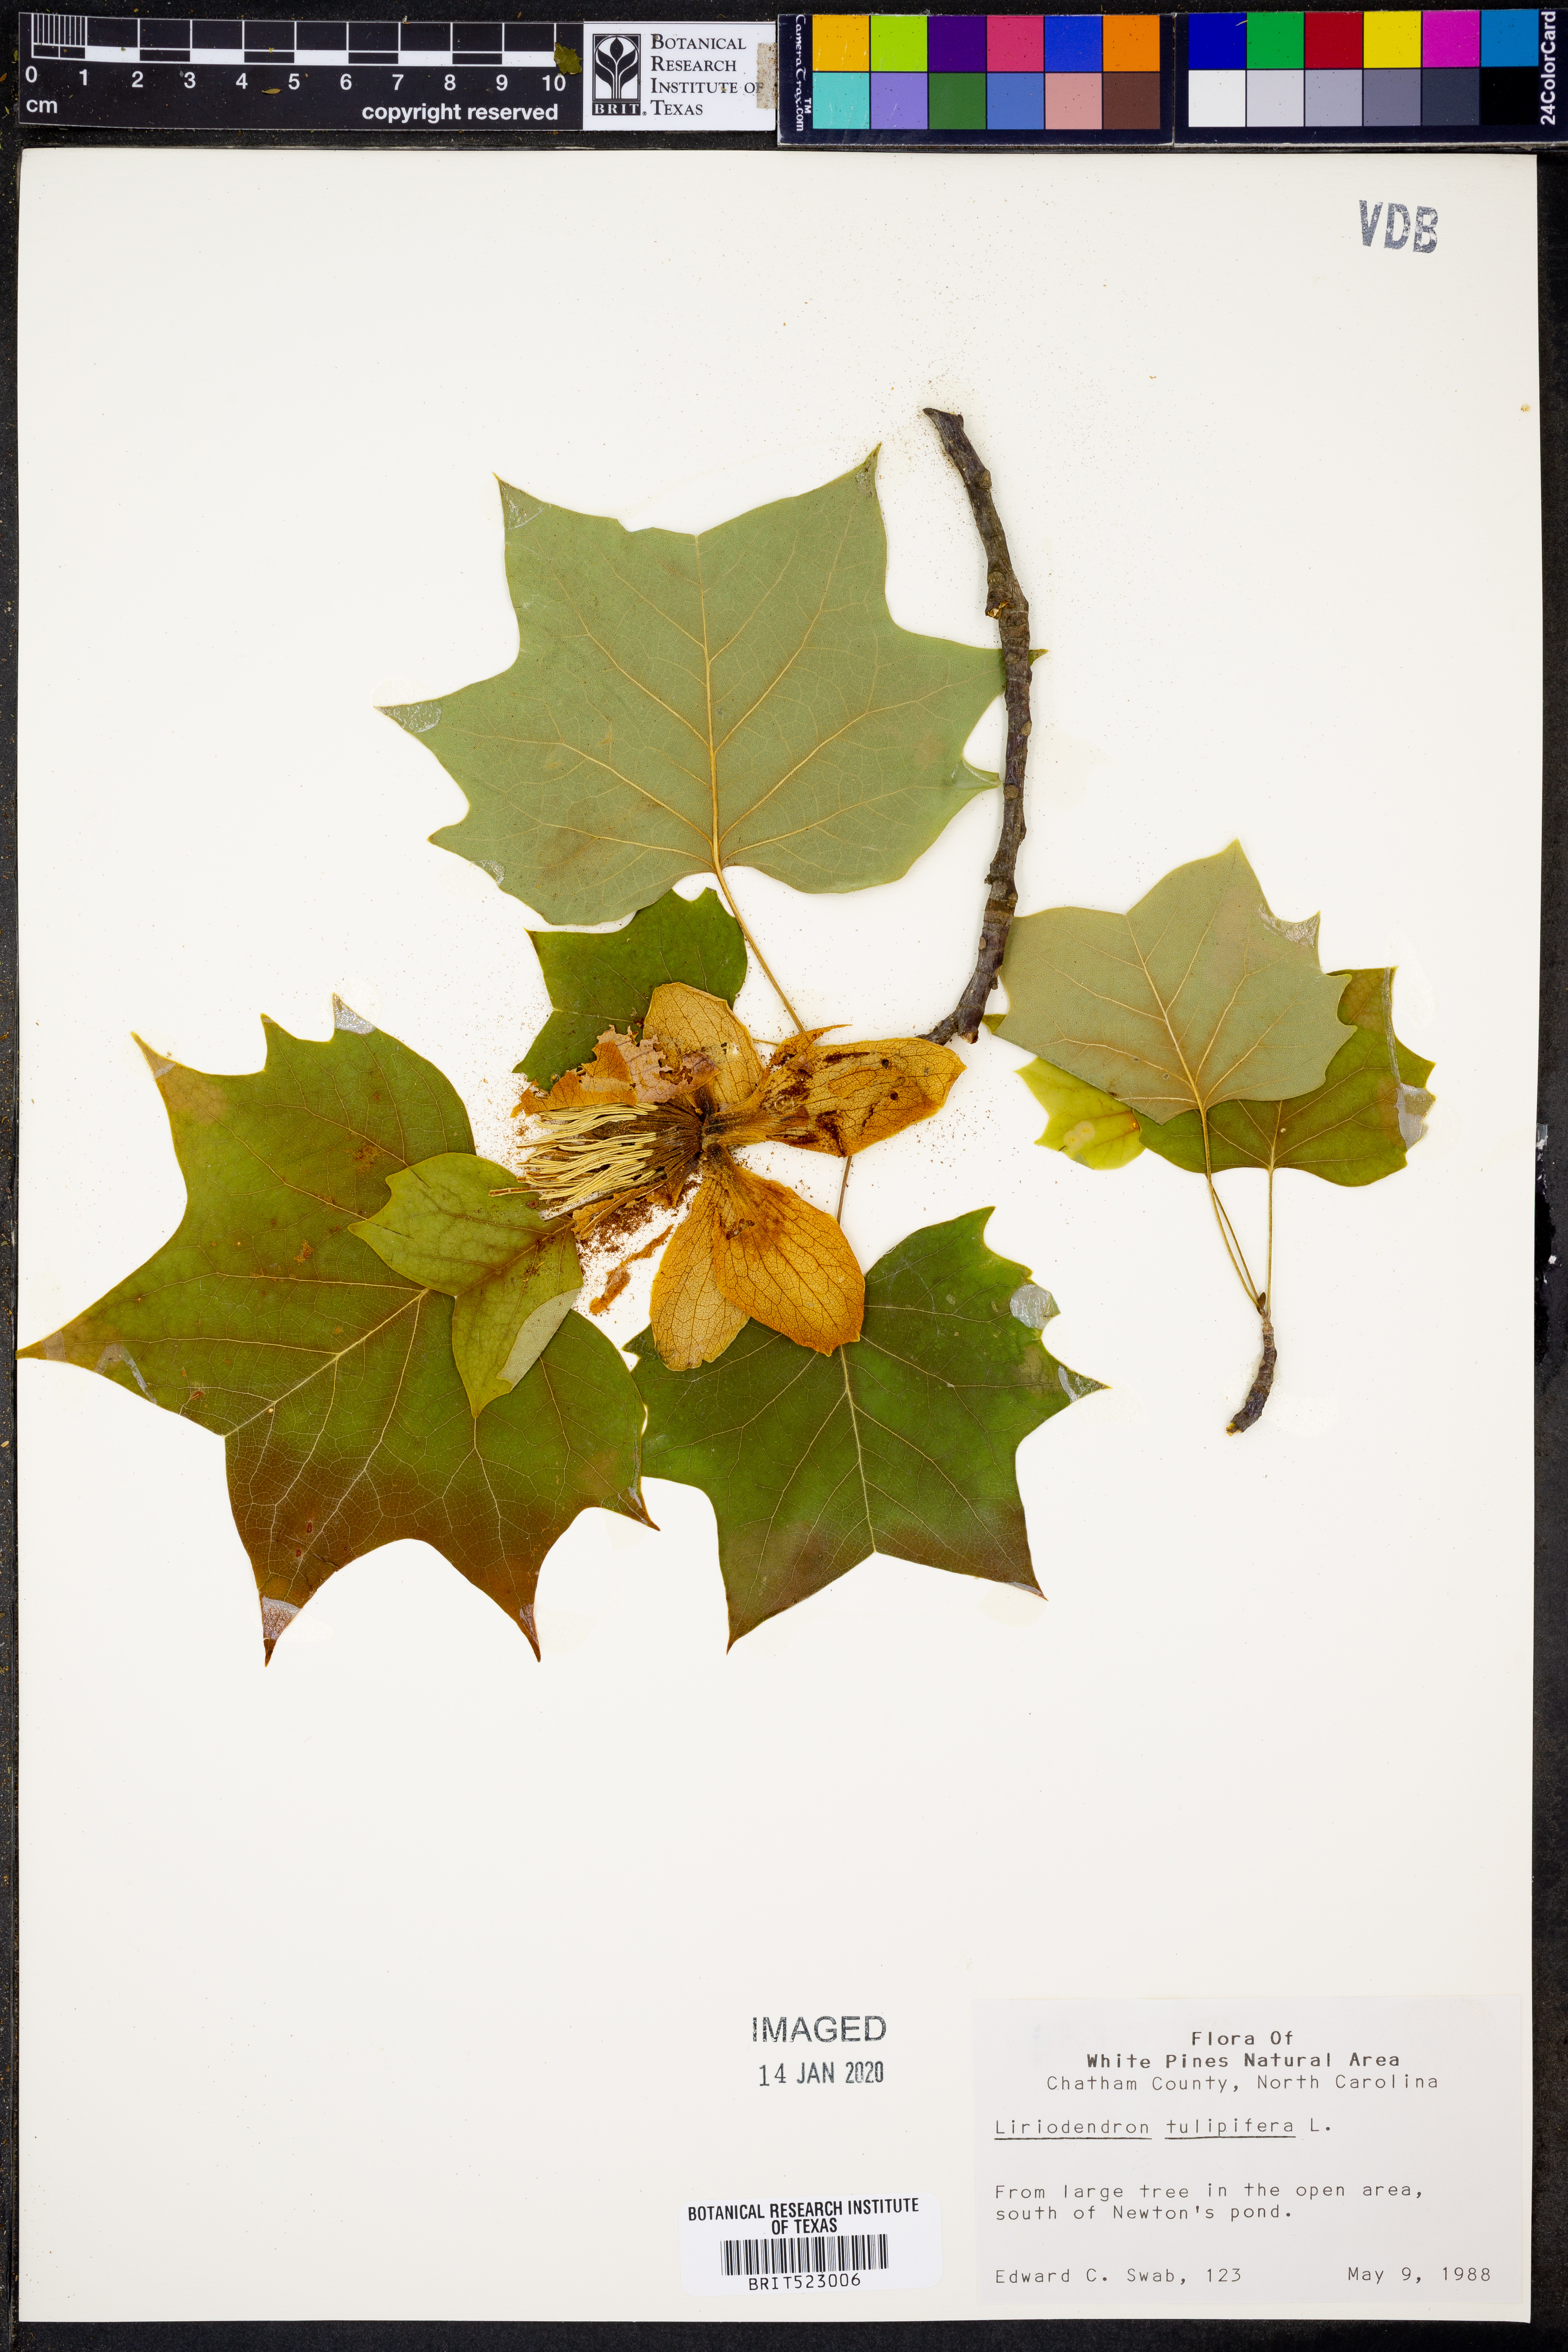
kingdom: Plantae
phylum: Tracheophyta
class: Magnoliopsida
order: Magnoliales
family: Magnoliaceae
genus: Liriodendron
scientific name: Liriodendron tulipifera
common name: Tulip tree
